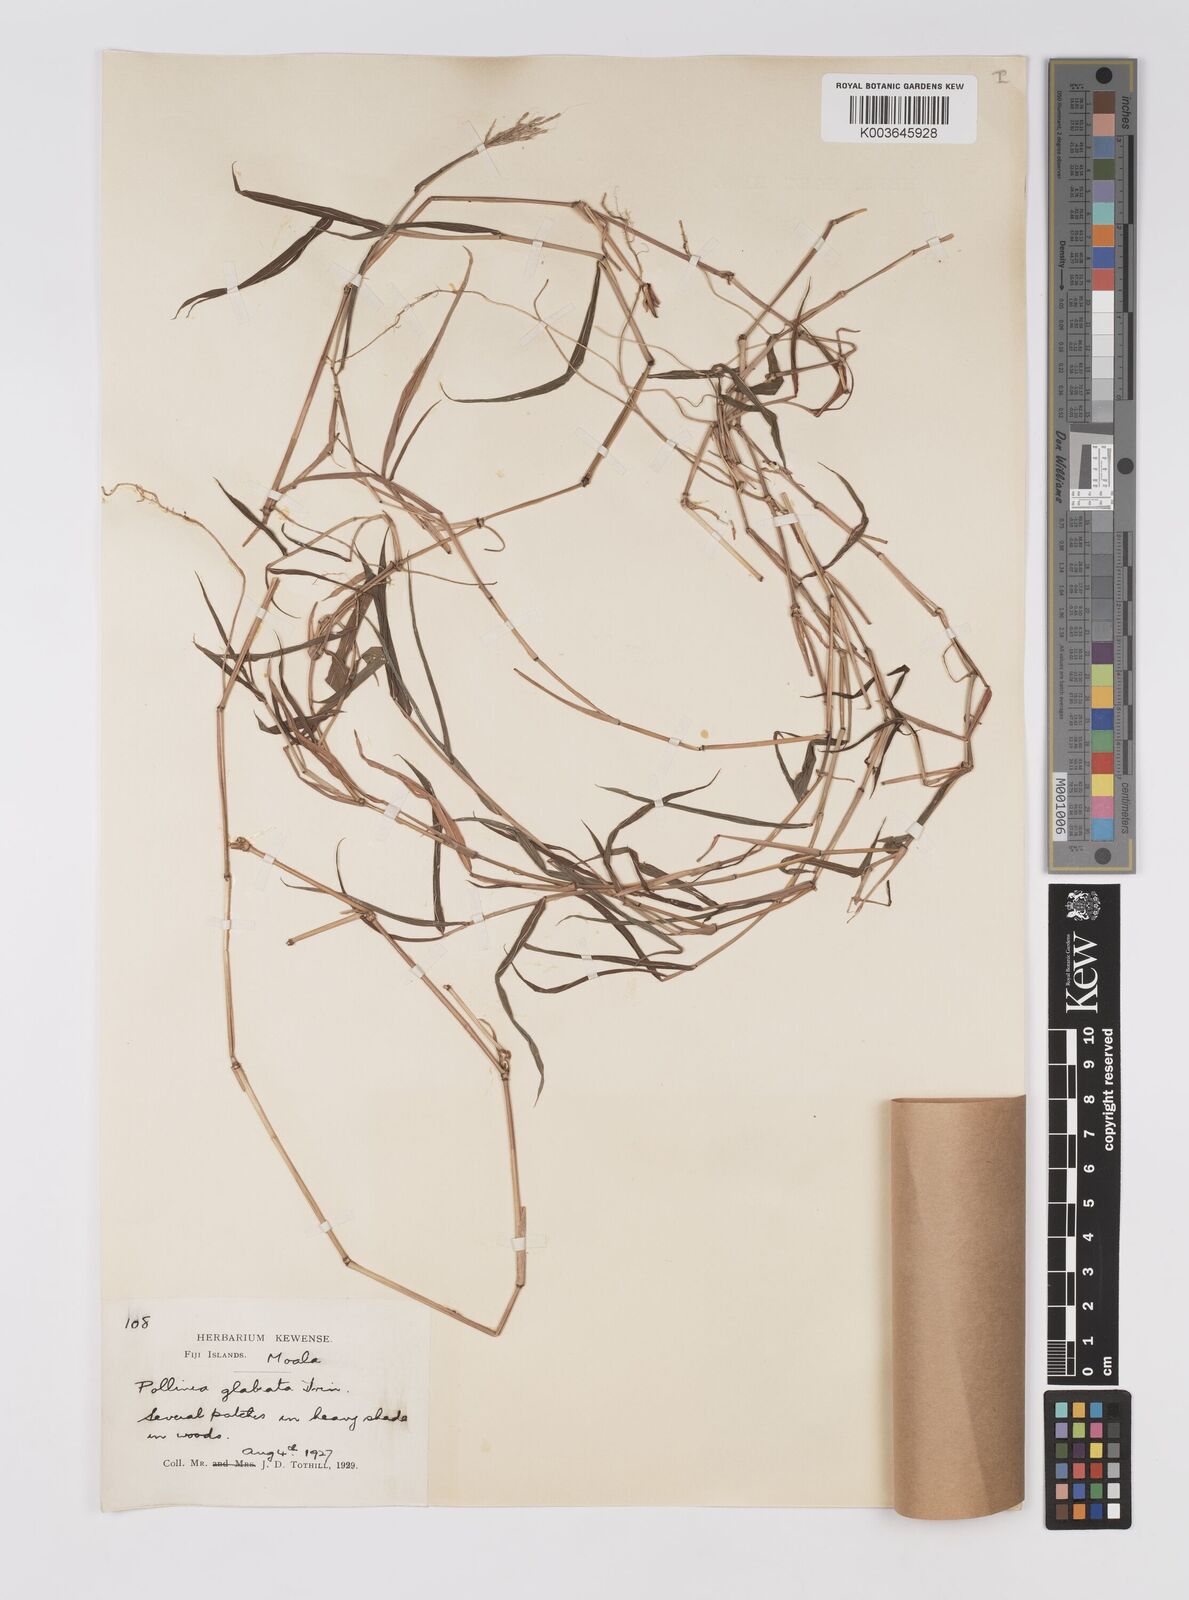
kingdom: Plantae
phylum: Tracheophyta
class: Liliopsida
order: Poales
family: Poaceae
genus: Microstegium
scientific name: Microstegium glabratum
